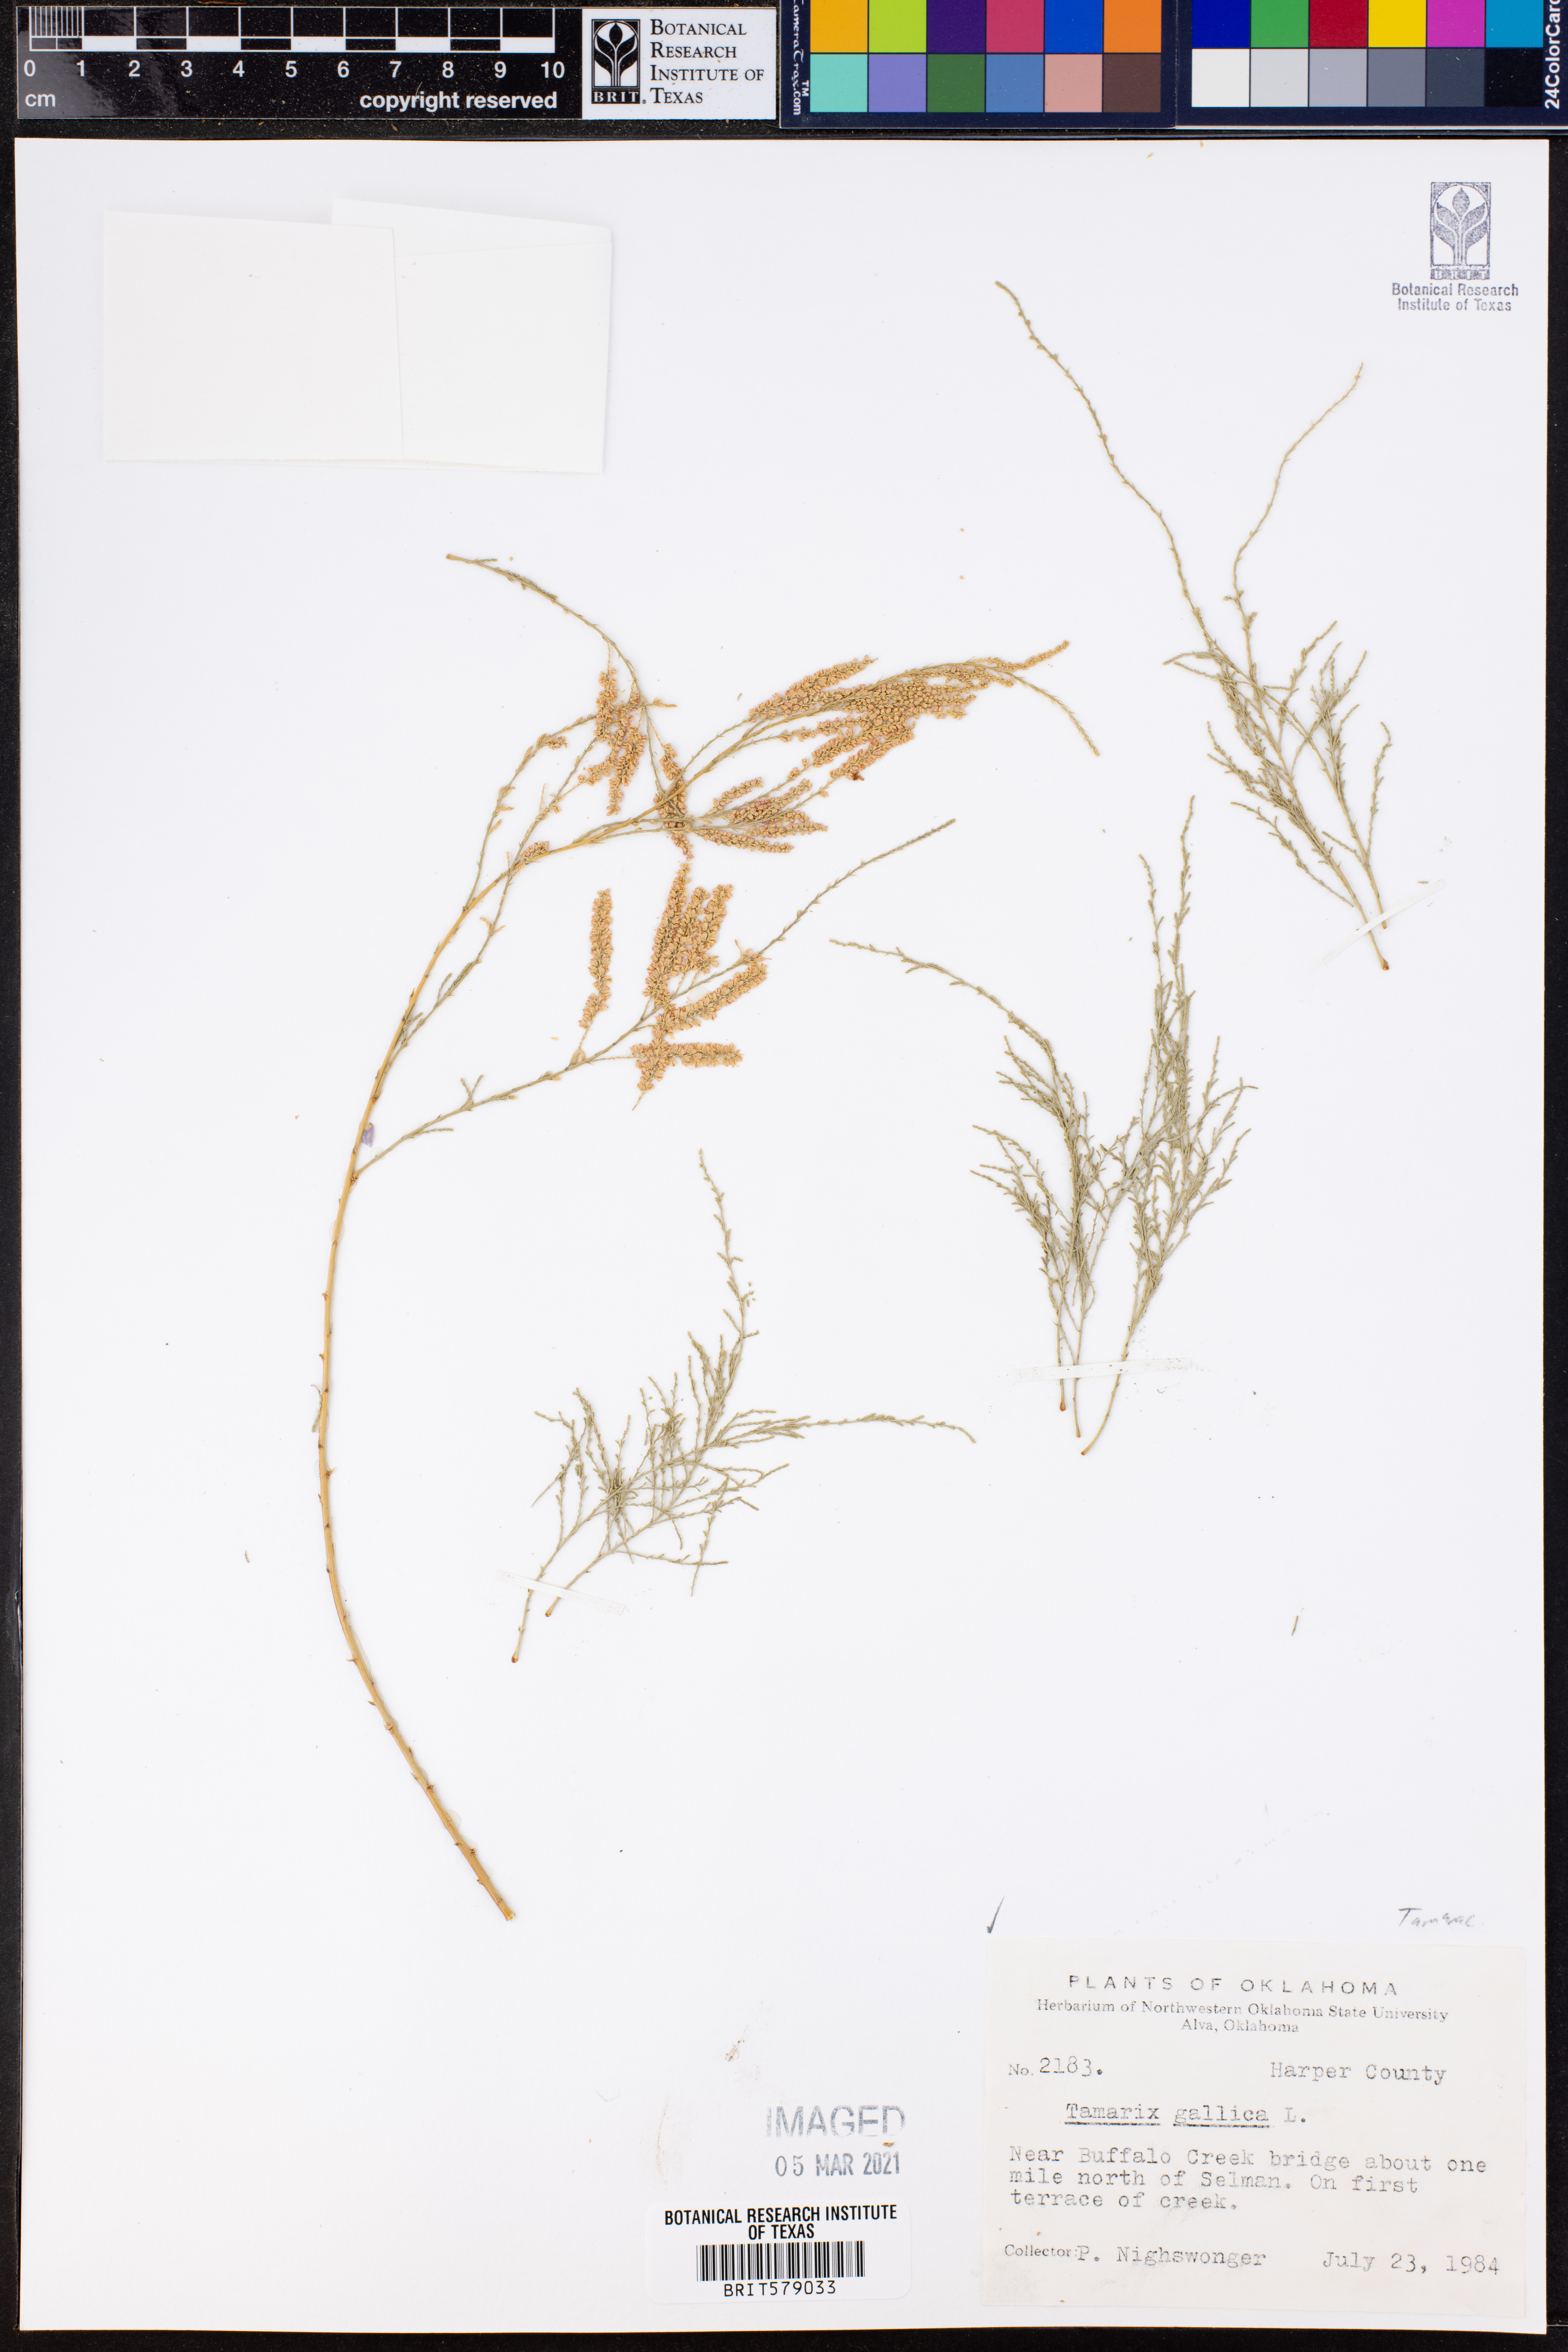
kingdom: Plantae
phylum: Tracheophyta
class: Magnoliopsida
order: Caryophyllales
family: Tamaricaceae
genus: Tamarix
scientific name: Tamarix gallica
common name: Tamarisk
